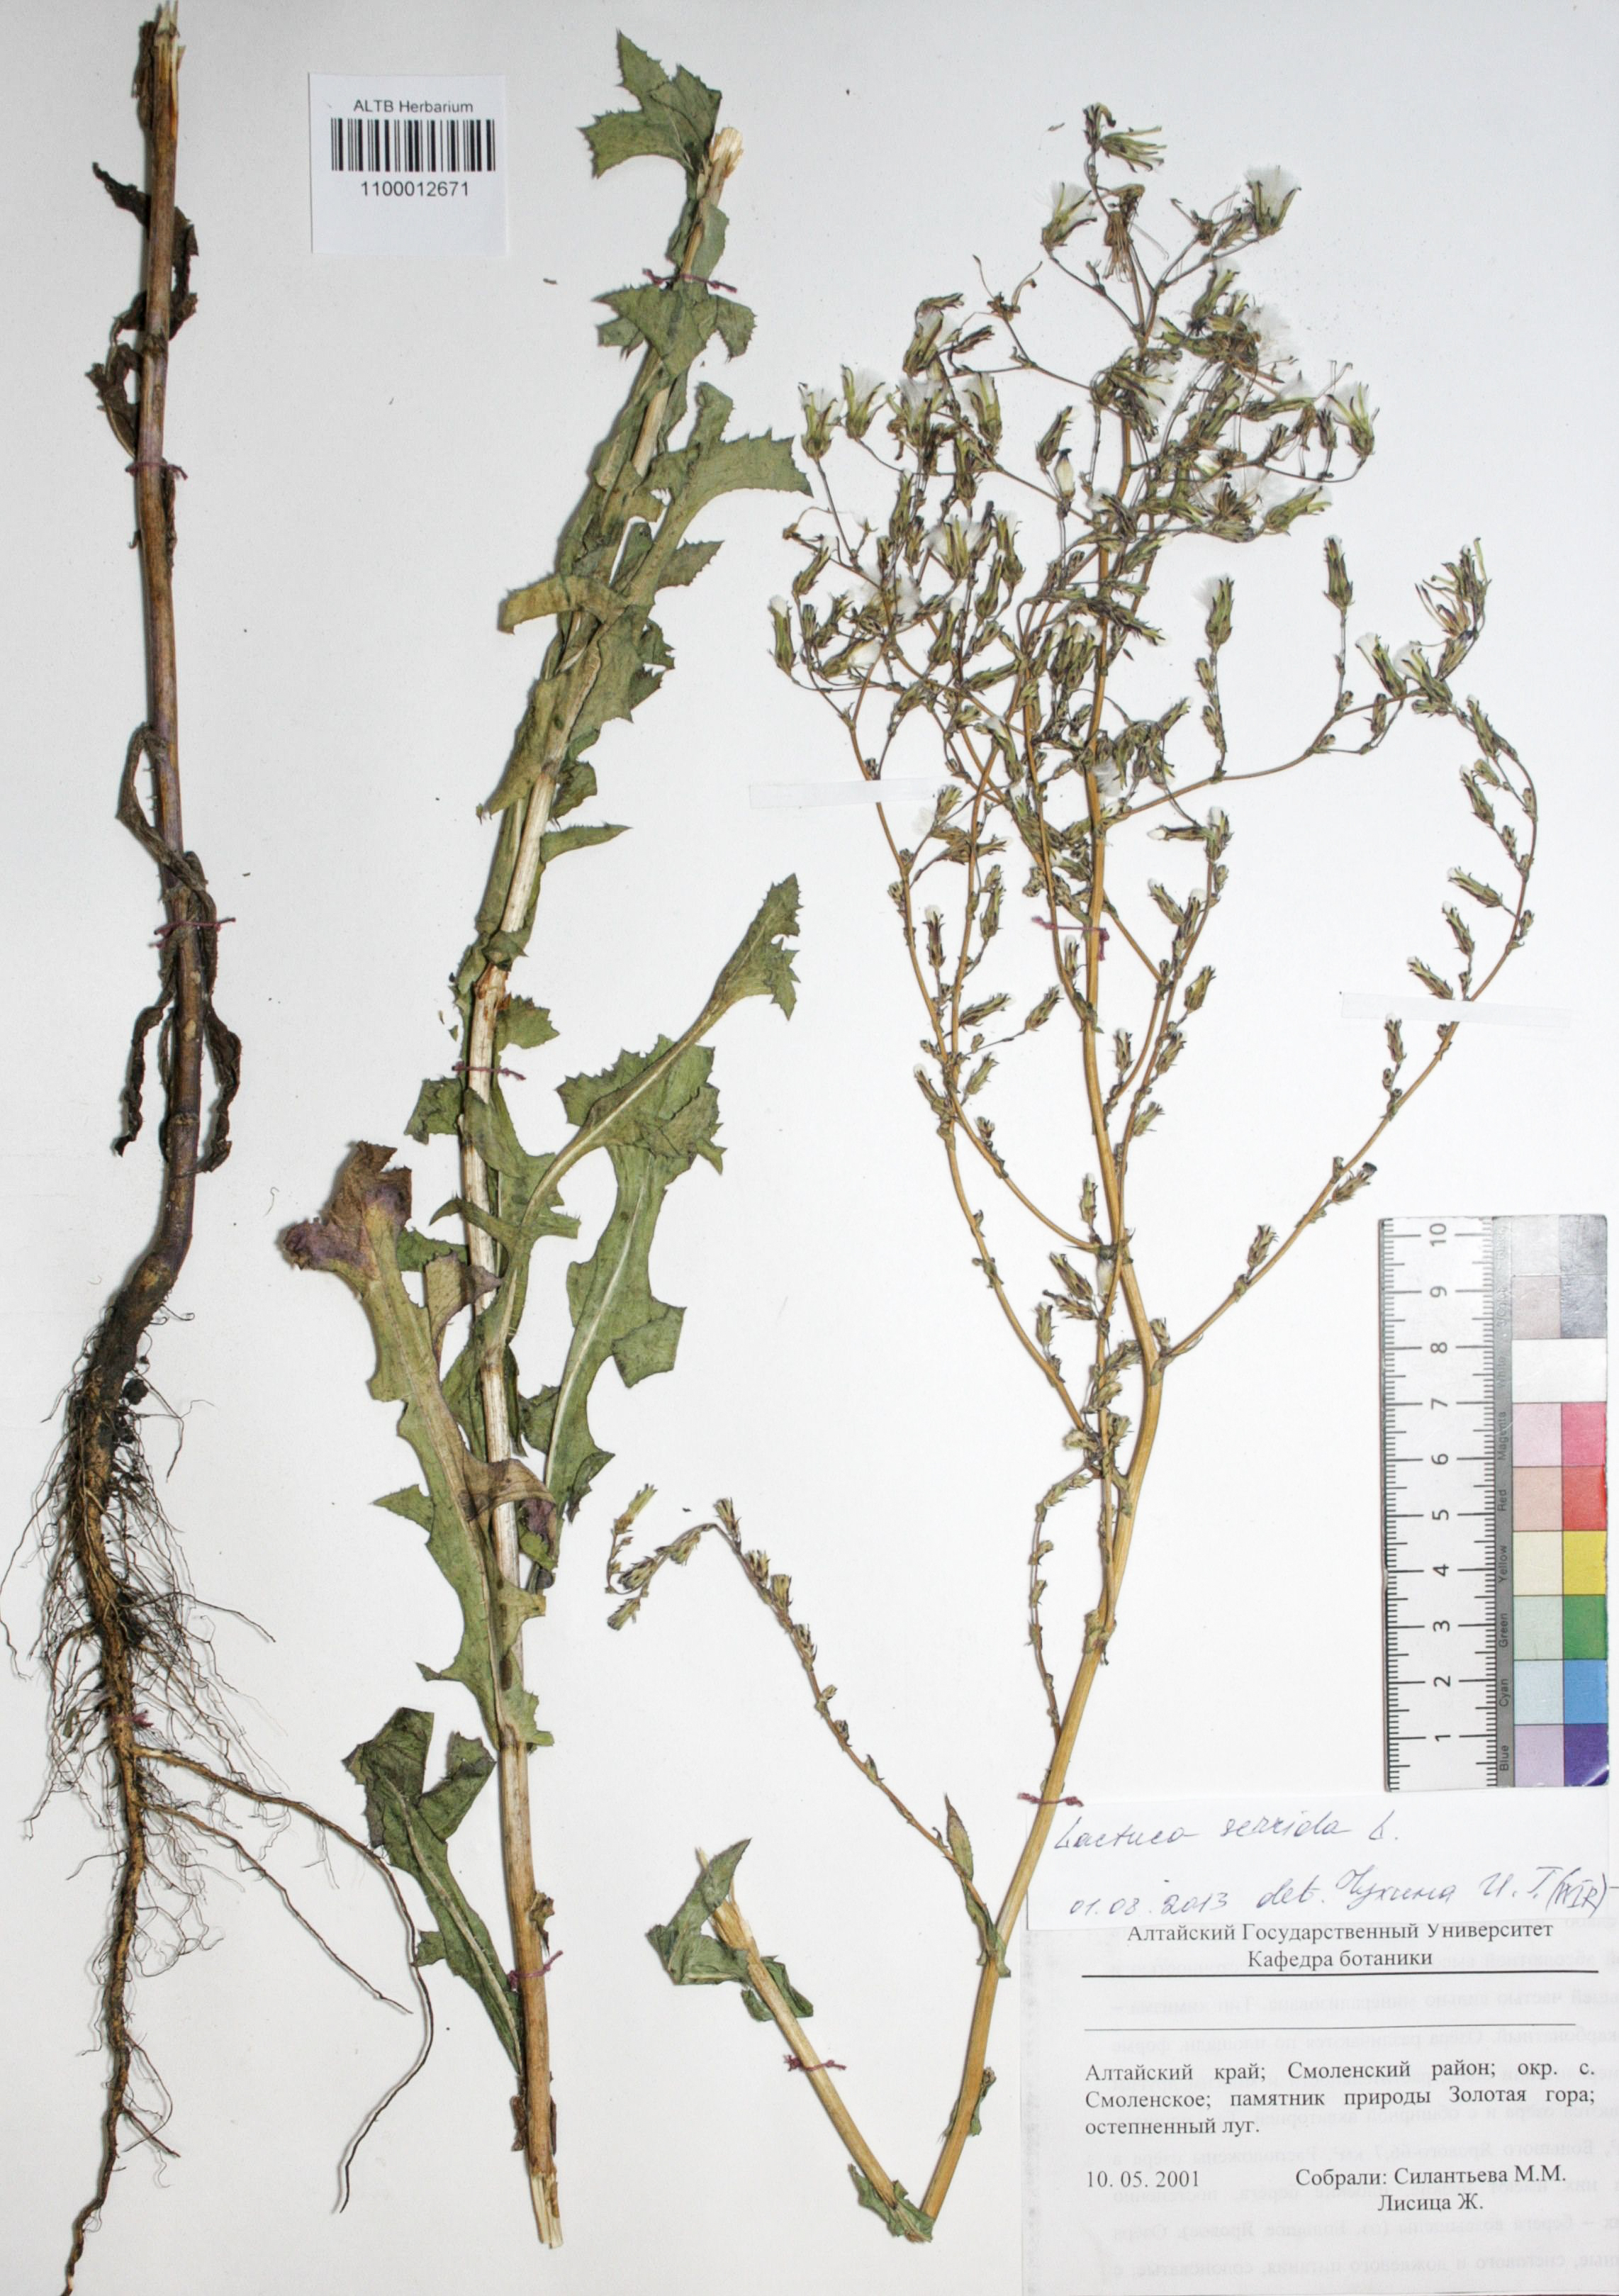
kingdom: Plantae
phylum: Tracheophyta
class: Magnoliopsida
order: Asterales
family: Asteraceae
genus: Lactuca
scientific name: Lactuca serriola
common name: Prickly lettuce
